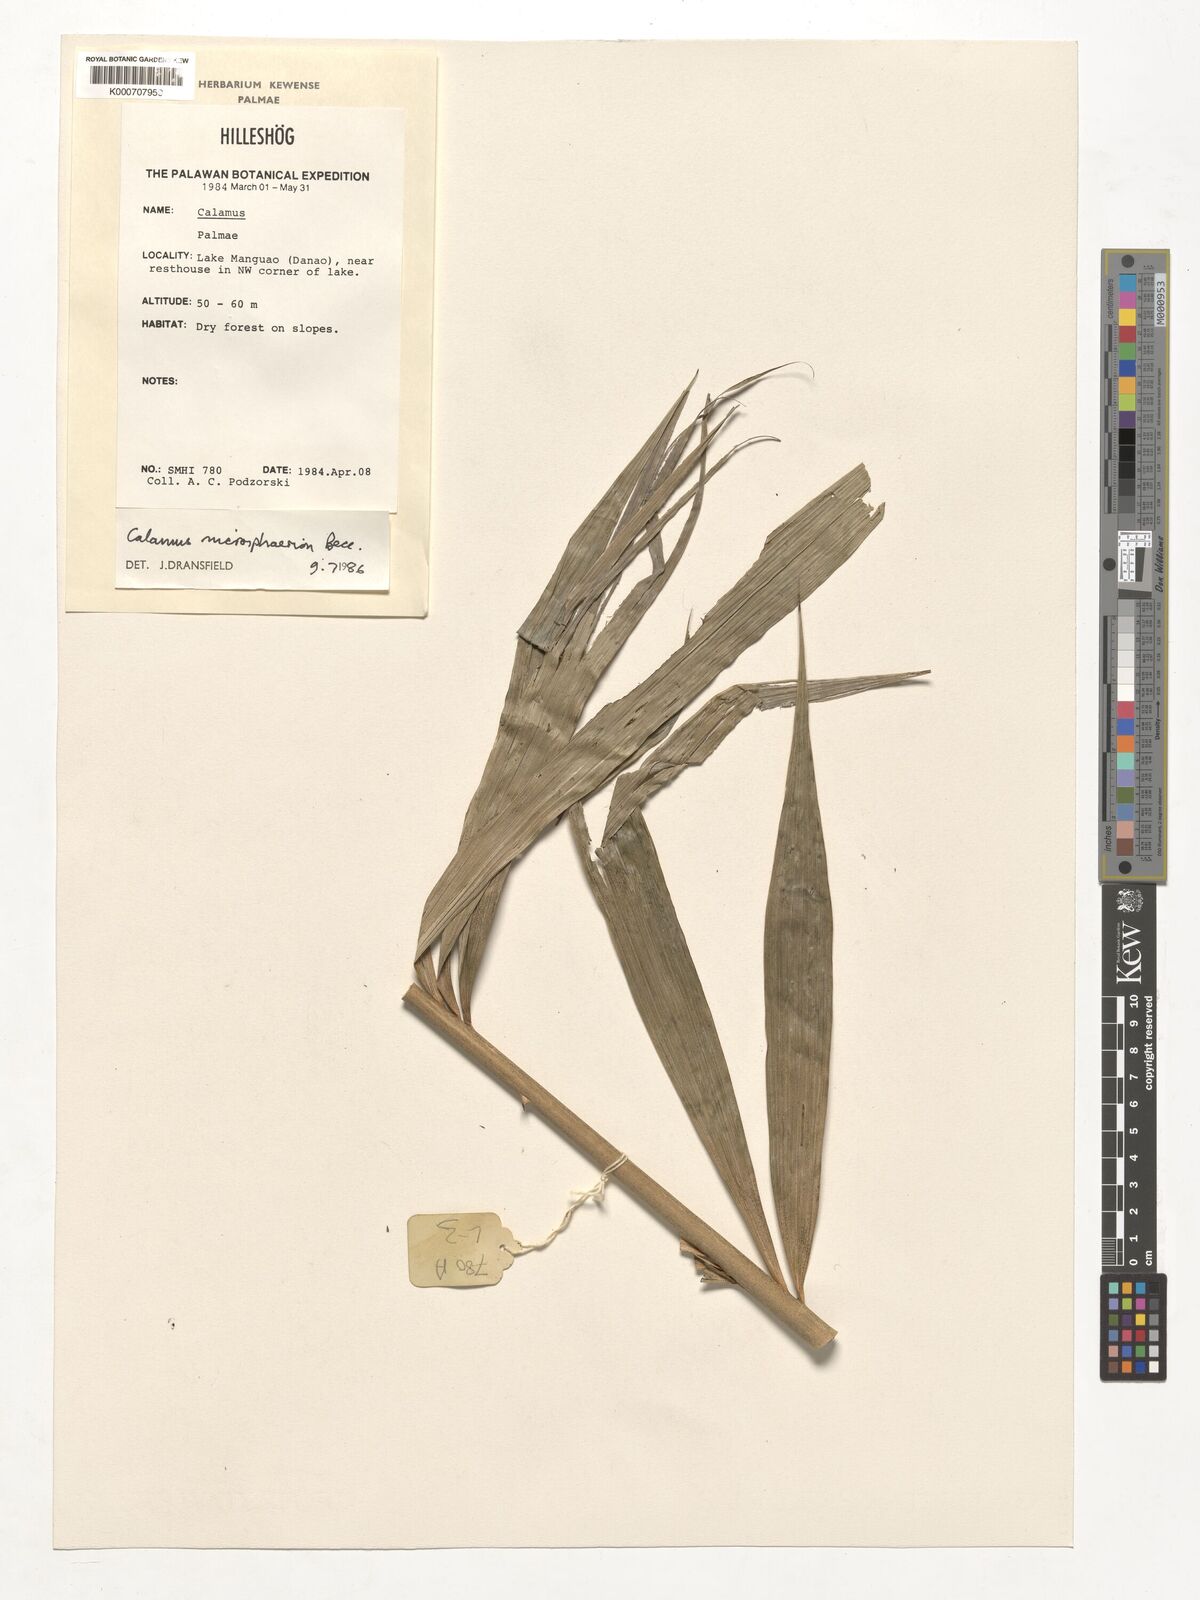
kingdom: Plantae
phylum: Tracheophyta
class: Liliopsida
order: Arecales
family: Arecaceae
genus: Calamus
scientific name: Calamus microsphaerion
